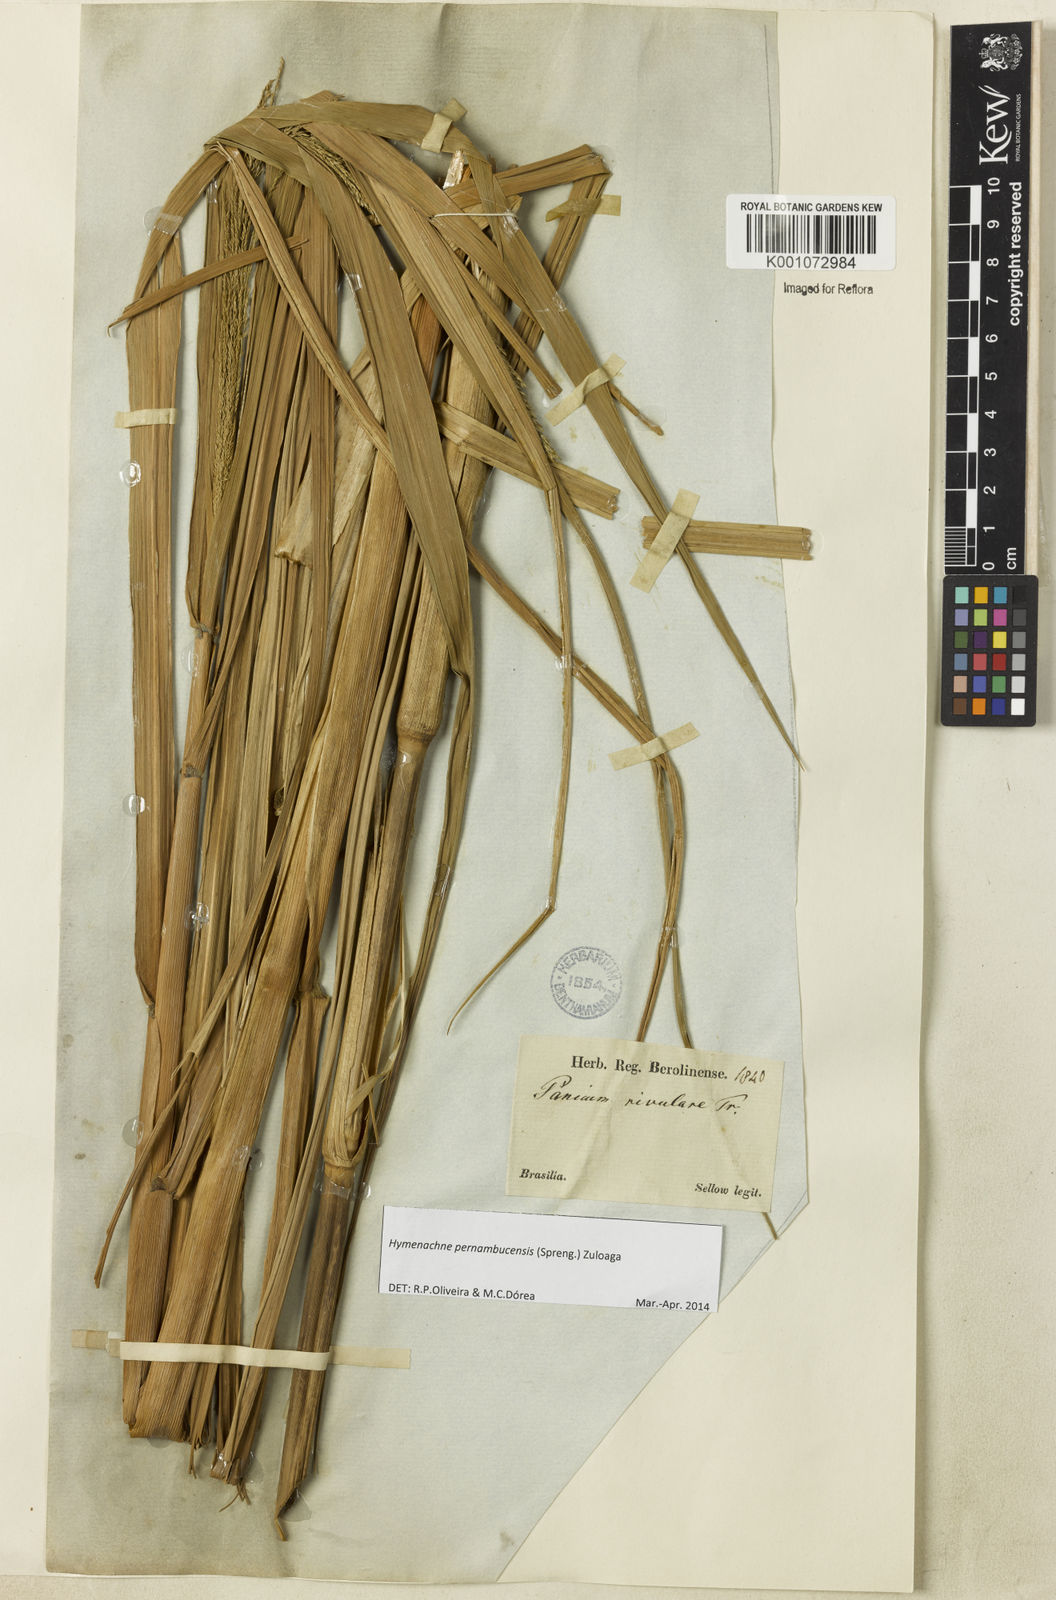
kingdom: Plantae
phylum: Tracheophyta
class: Liliopsida
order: Poales
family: Poaceae
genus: Hymenachne
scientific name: Hymenachne pernambucensis
